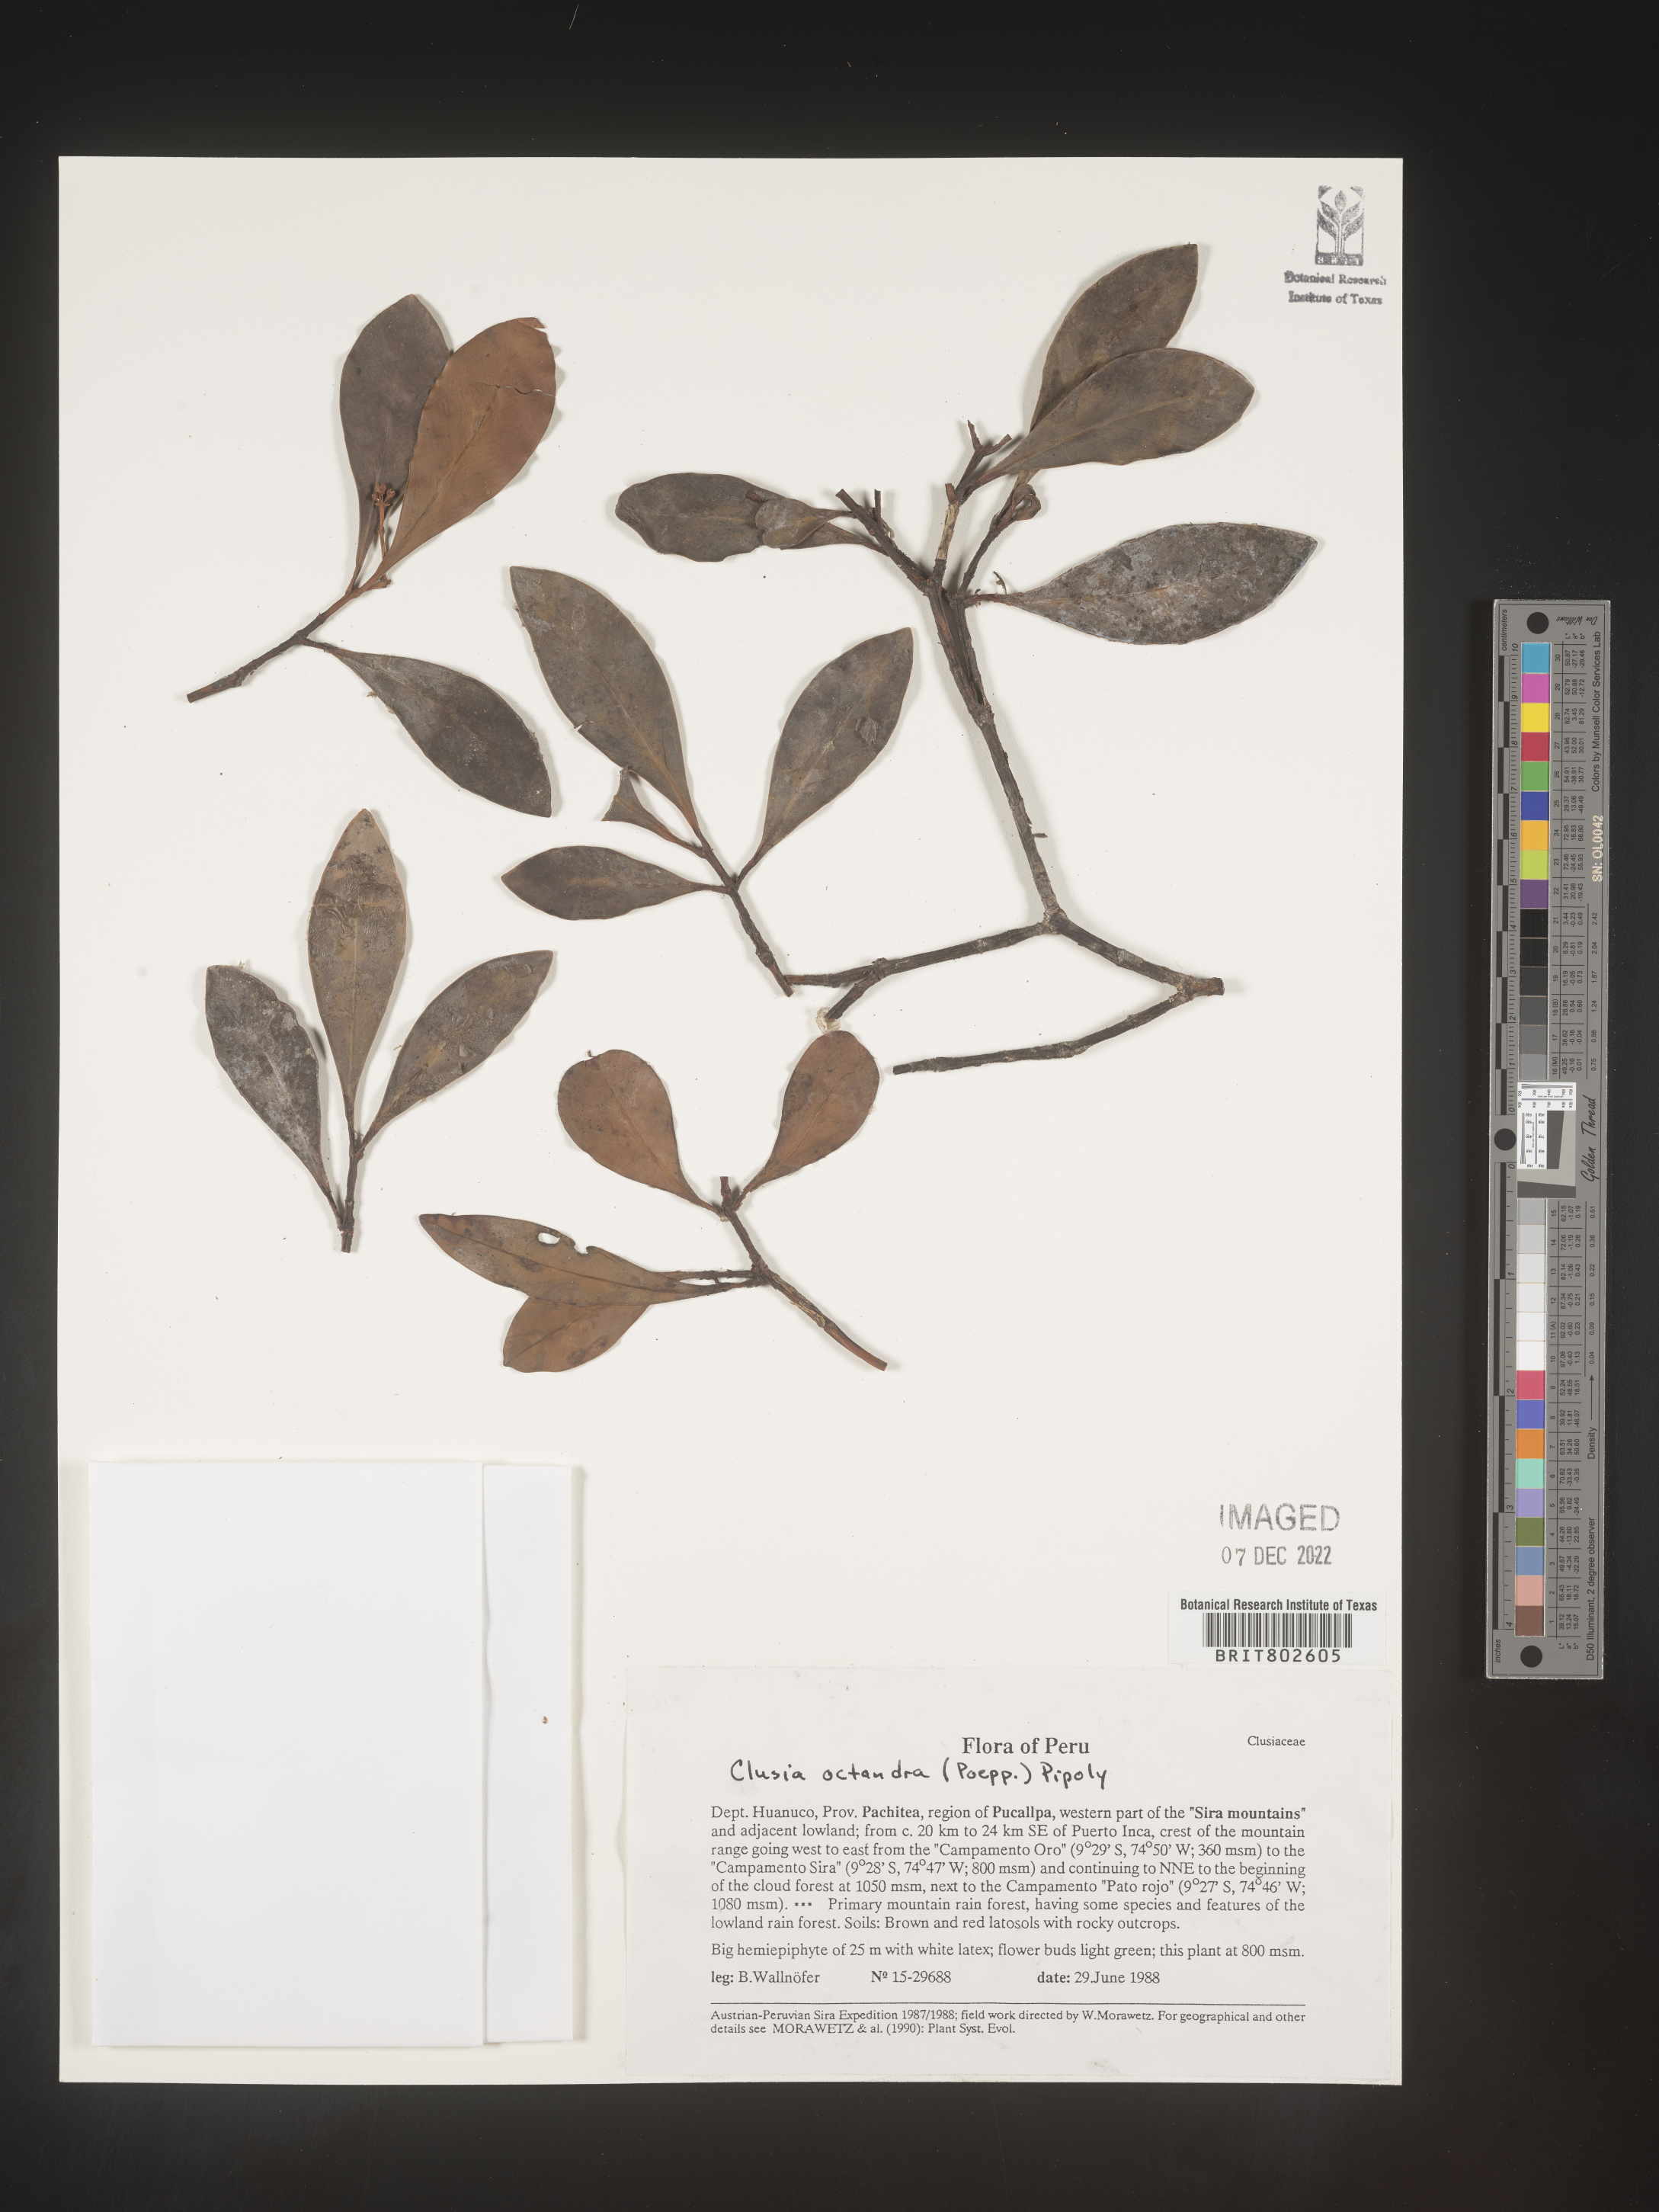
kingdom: Plantae
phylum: Tracheophyta
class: Magnoliopsida
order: Malpighiales
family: Clusiaceae
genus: Clusia
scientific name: Clusia
